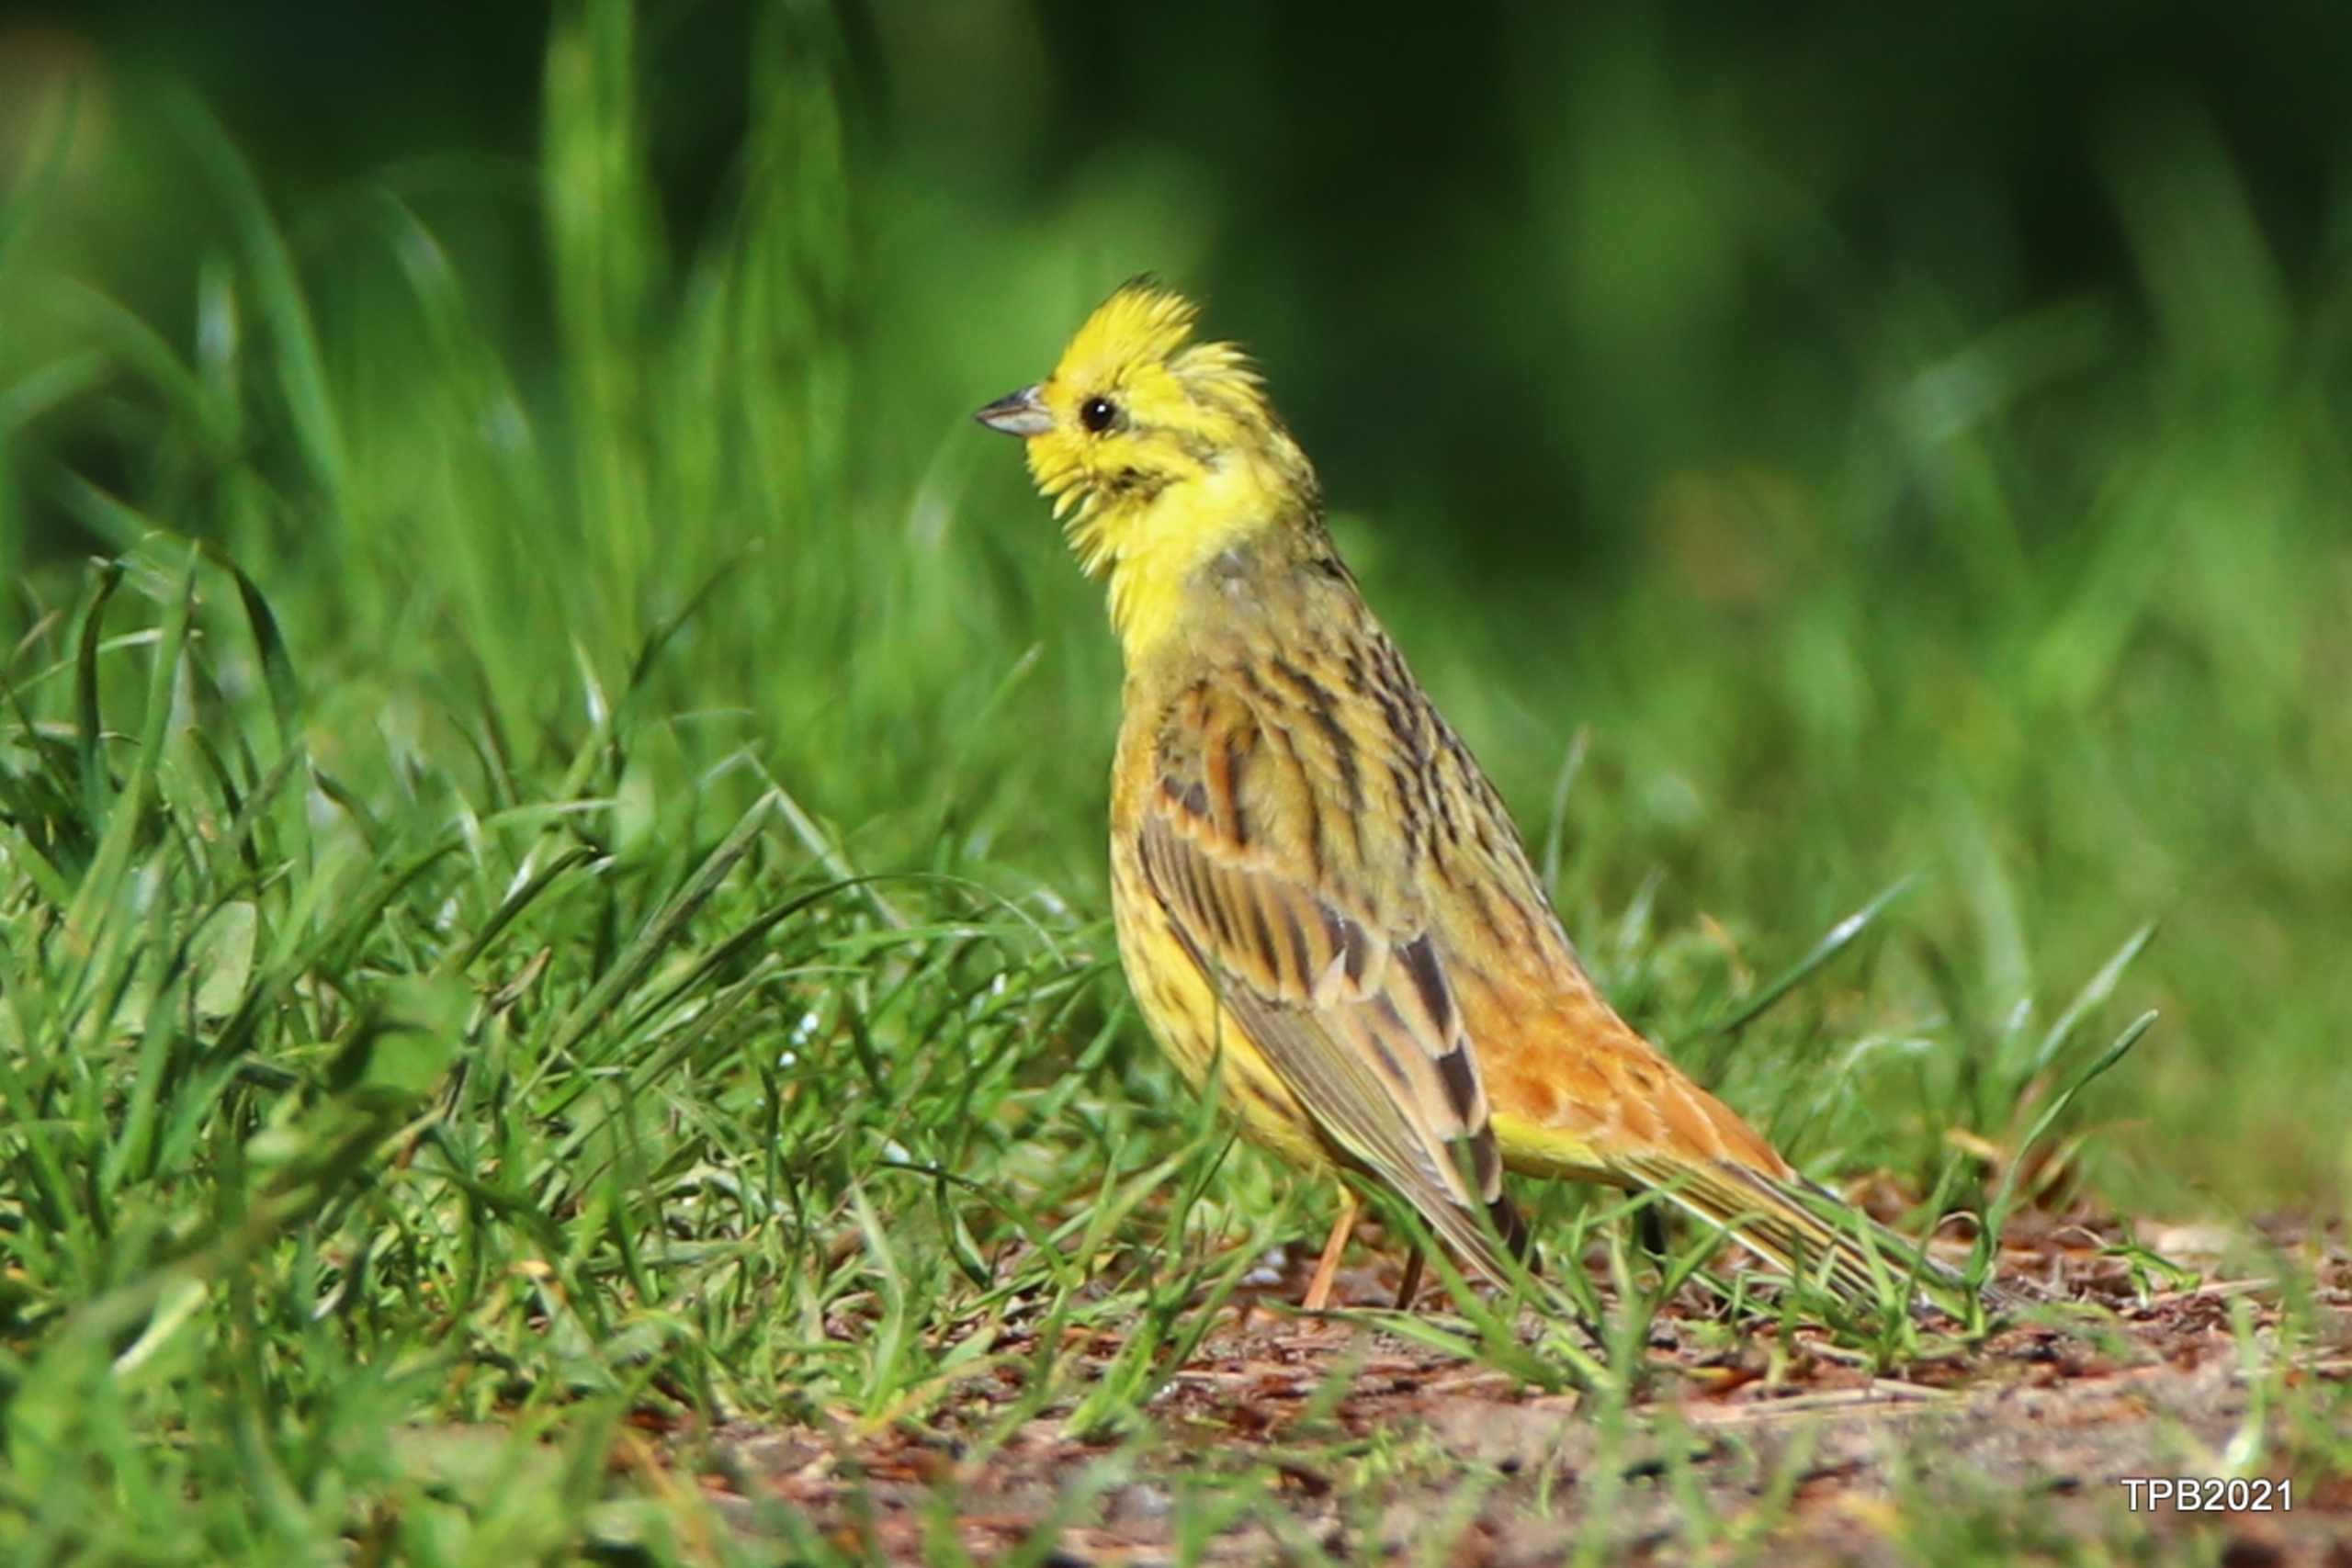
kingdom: Animalia
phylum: Chordata
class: Aves
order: Passeriformes
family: Emberizidae
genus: Emberiza
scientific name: Emberiza citrinella
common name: Gulspurv
